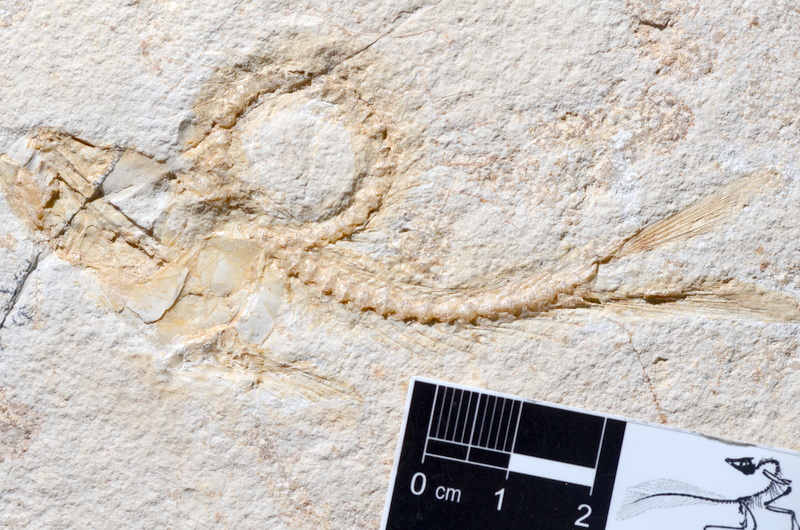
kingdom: Animalia
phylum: Chordata
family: Ascalaboidae
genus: Tharsis
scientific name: Tharsis dubius
